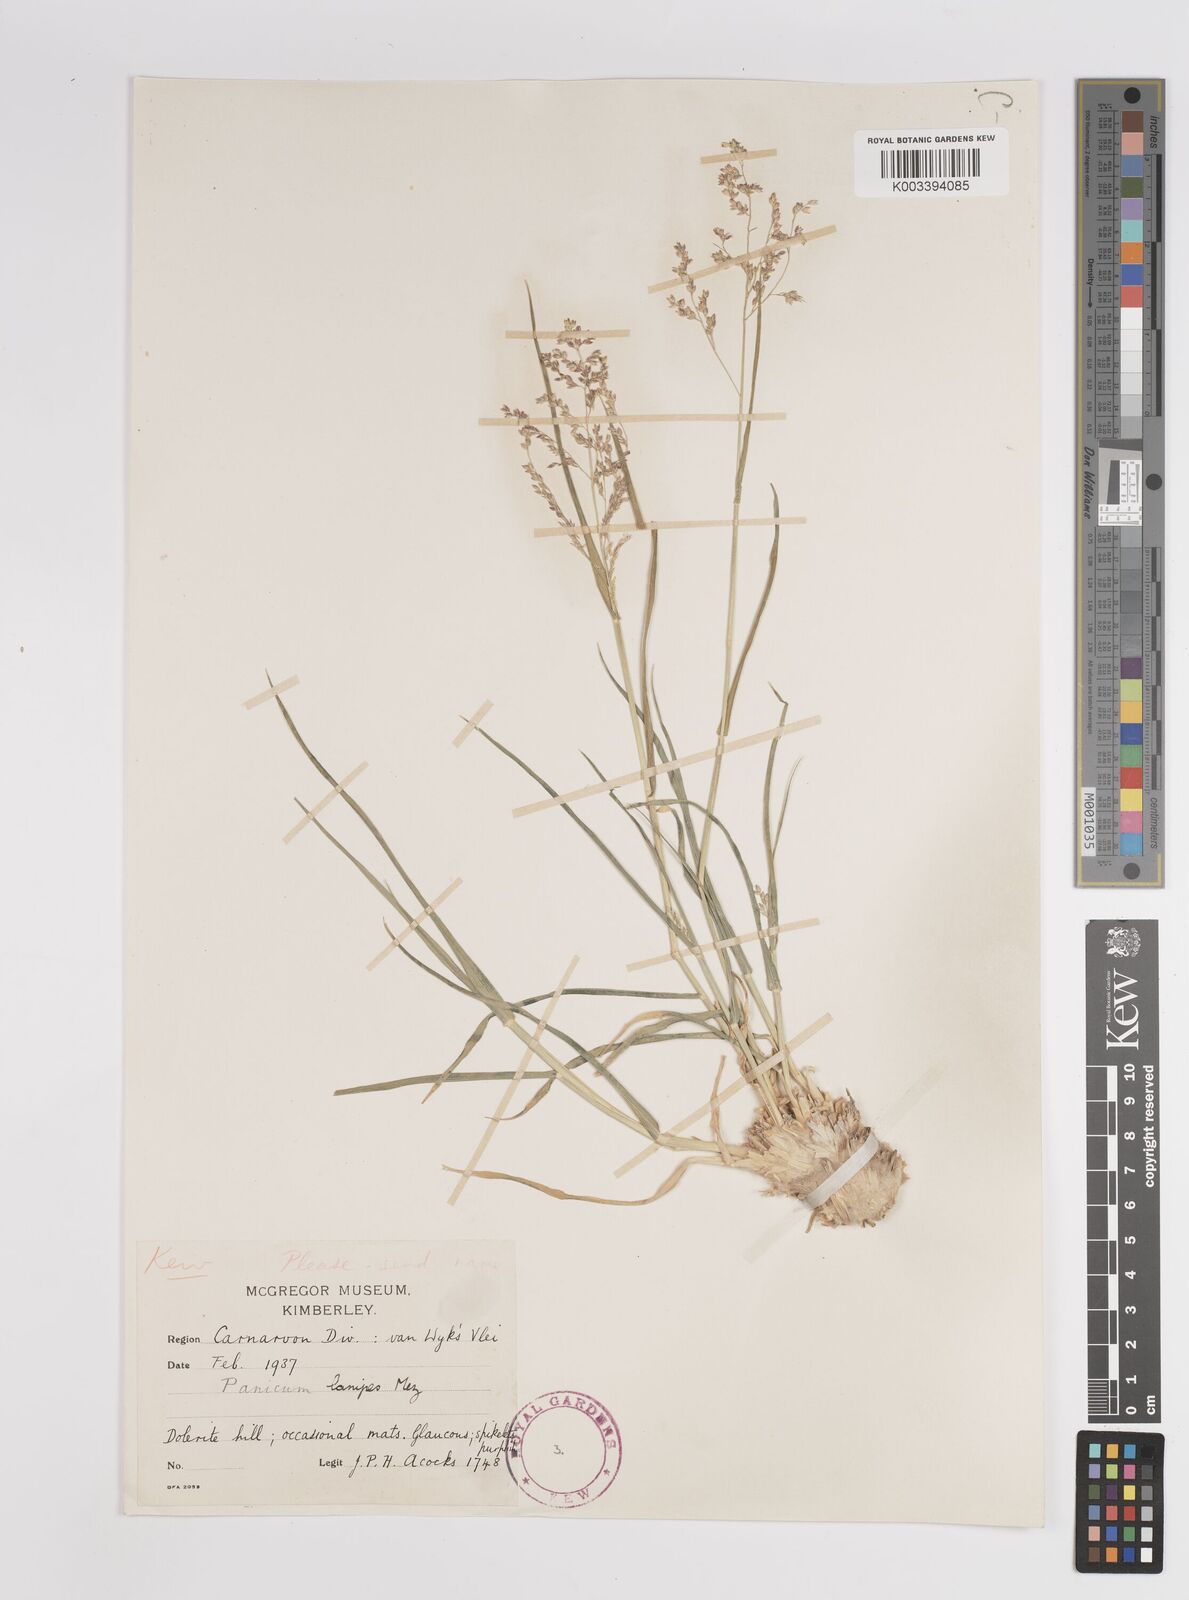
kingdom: Plantae
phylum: Tracheophyta
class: Liliopsida
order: Poales
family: Poaceae
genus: Panicum
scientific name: Panicum lanipes
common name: Wolvoet panicum
